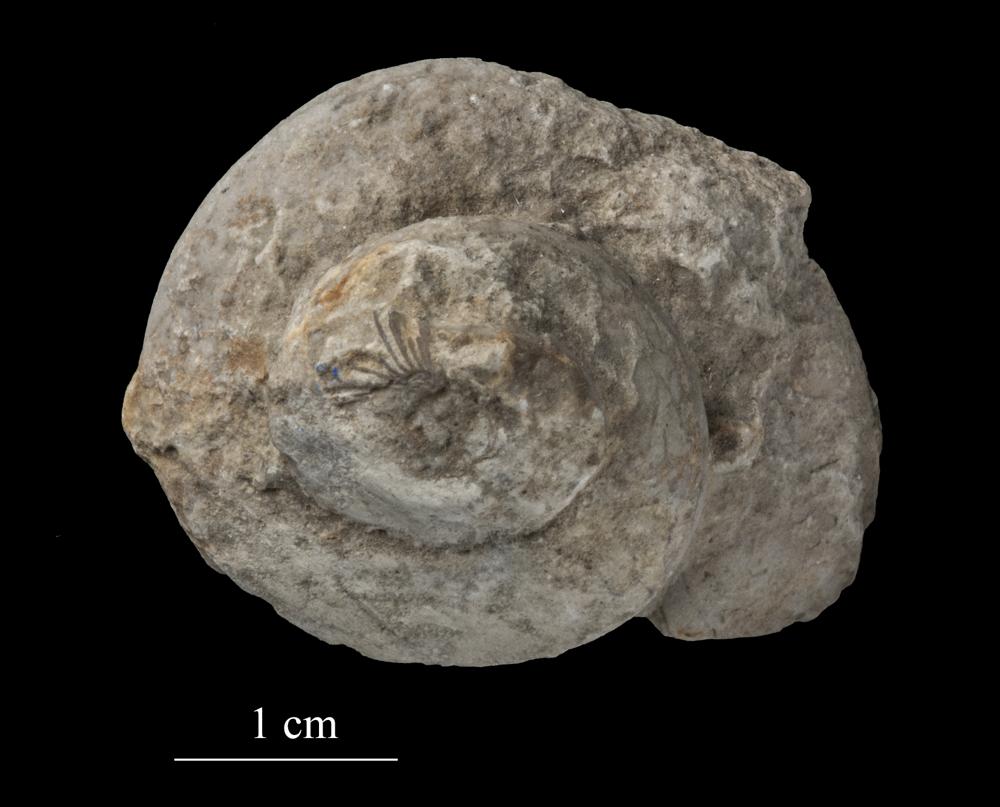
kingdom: Animalia
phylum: Mollusca
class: Gastropoda
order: Pleurotomariida
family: Phymatopleuridae
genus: Worthenia
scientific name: Worthenia
